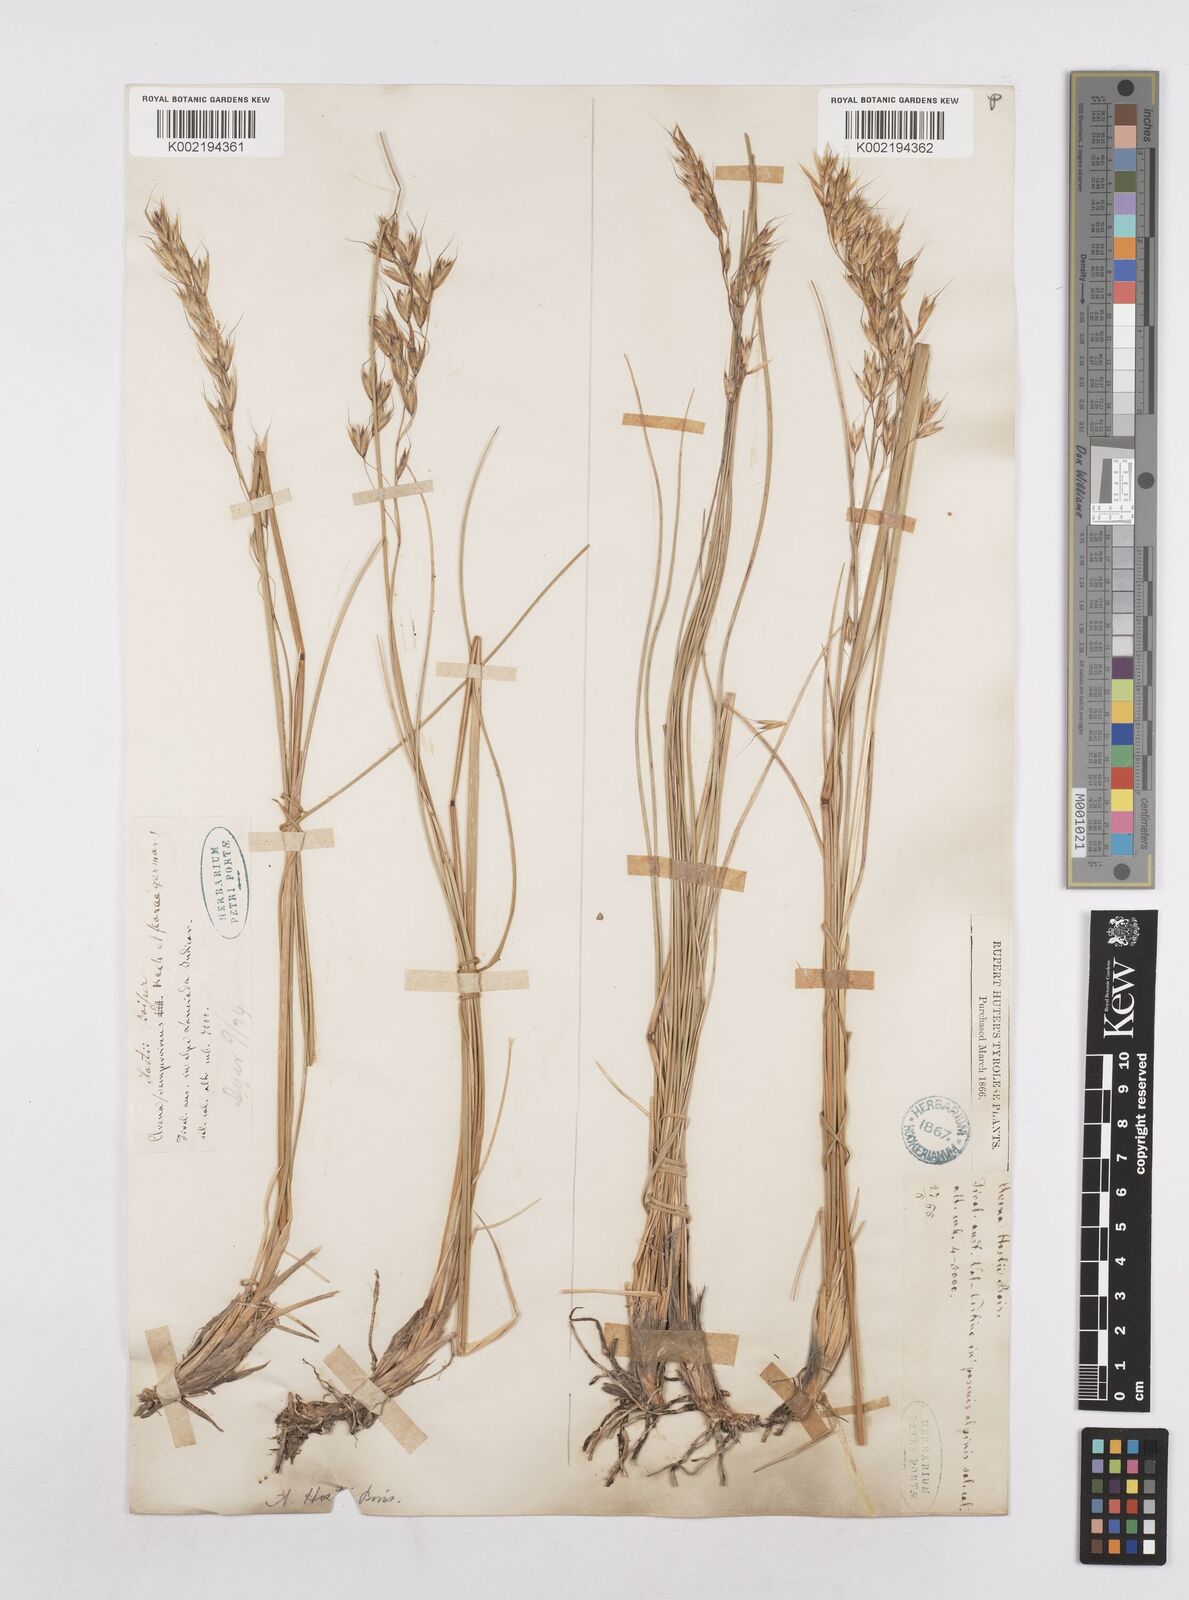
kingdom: Plantae
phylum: Tracheophyta
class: Liliopsida
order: Poales
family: Poaceae
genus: Helictotrichon
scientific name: Helictotrichon parlatorei
